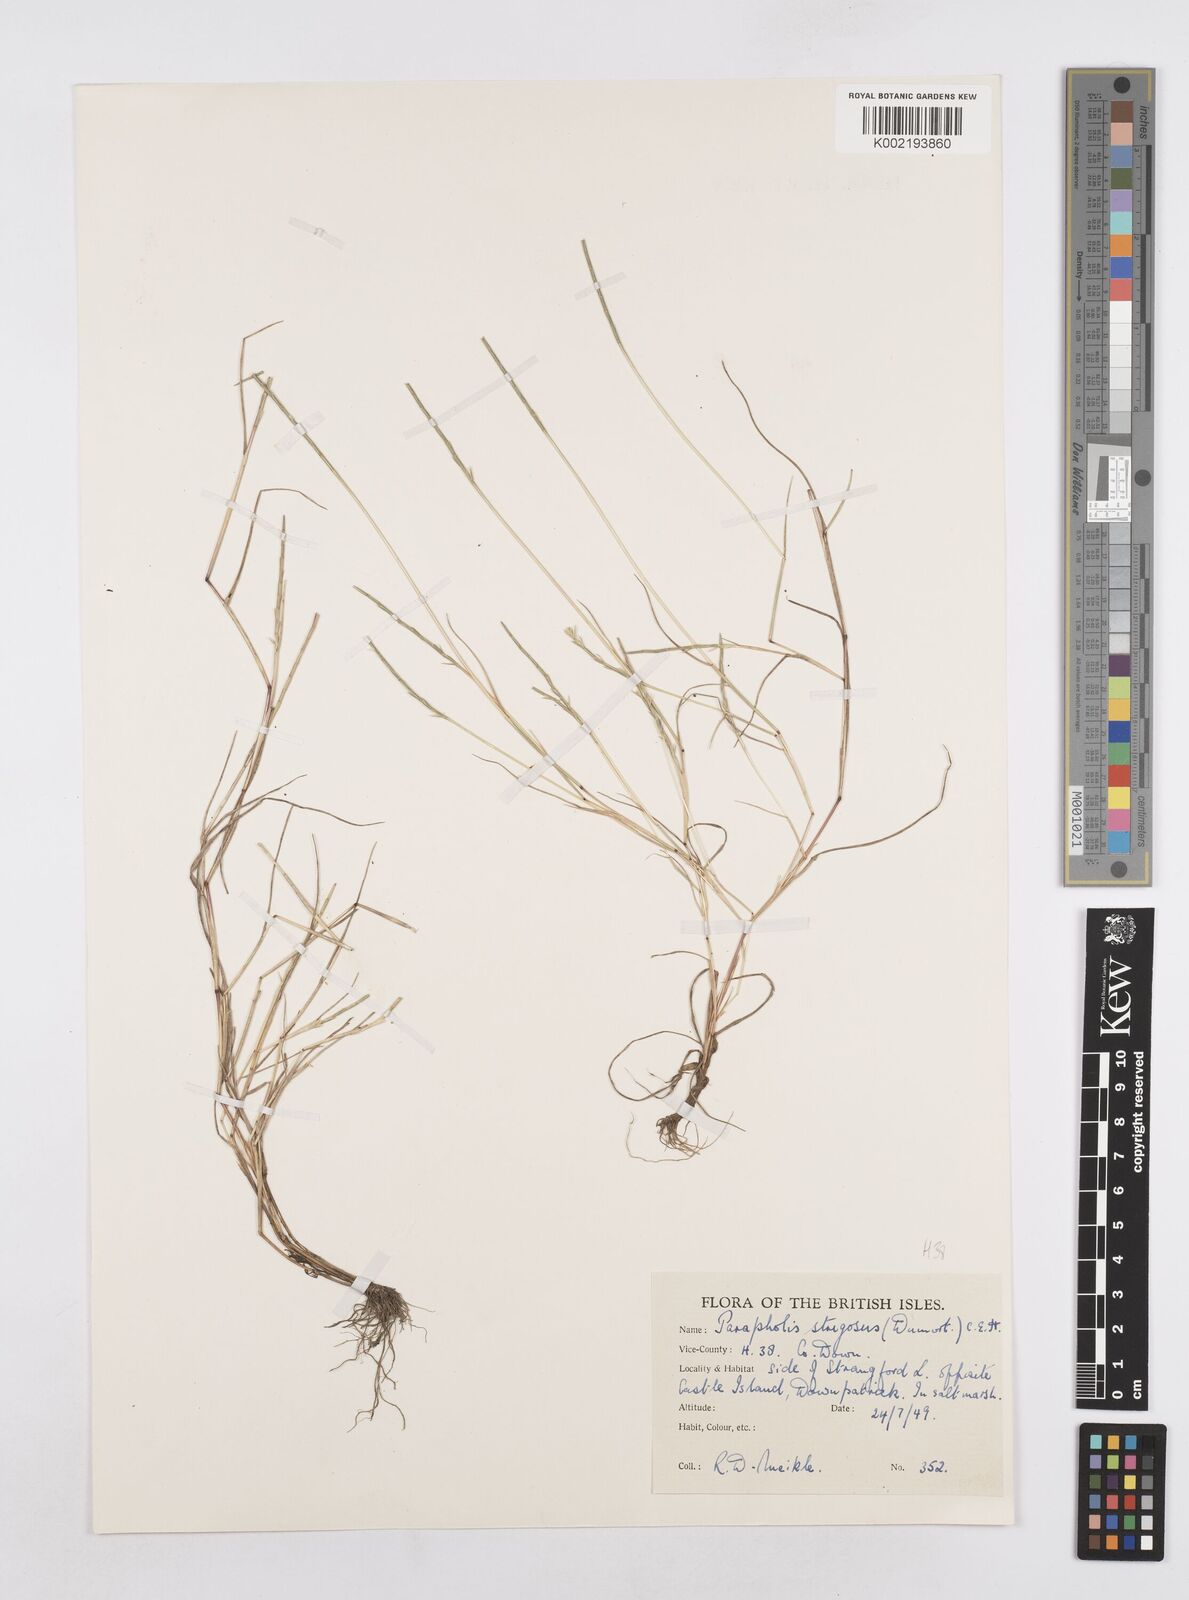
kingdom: Plantae
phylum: Tracheophyta
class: Liliopsida
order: Poales
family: Poaceae
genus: Parapholis
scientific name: Parapholis strigosa
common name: Hard-grass
